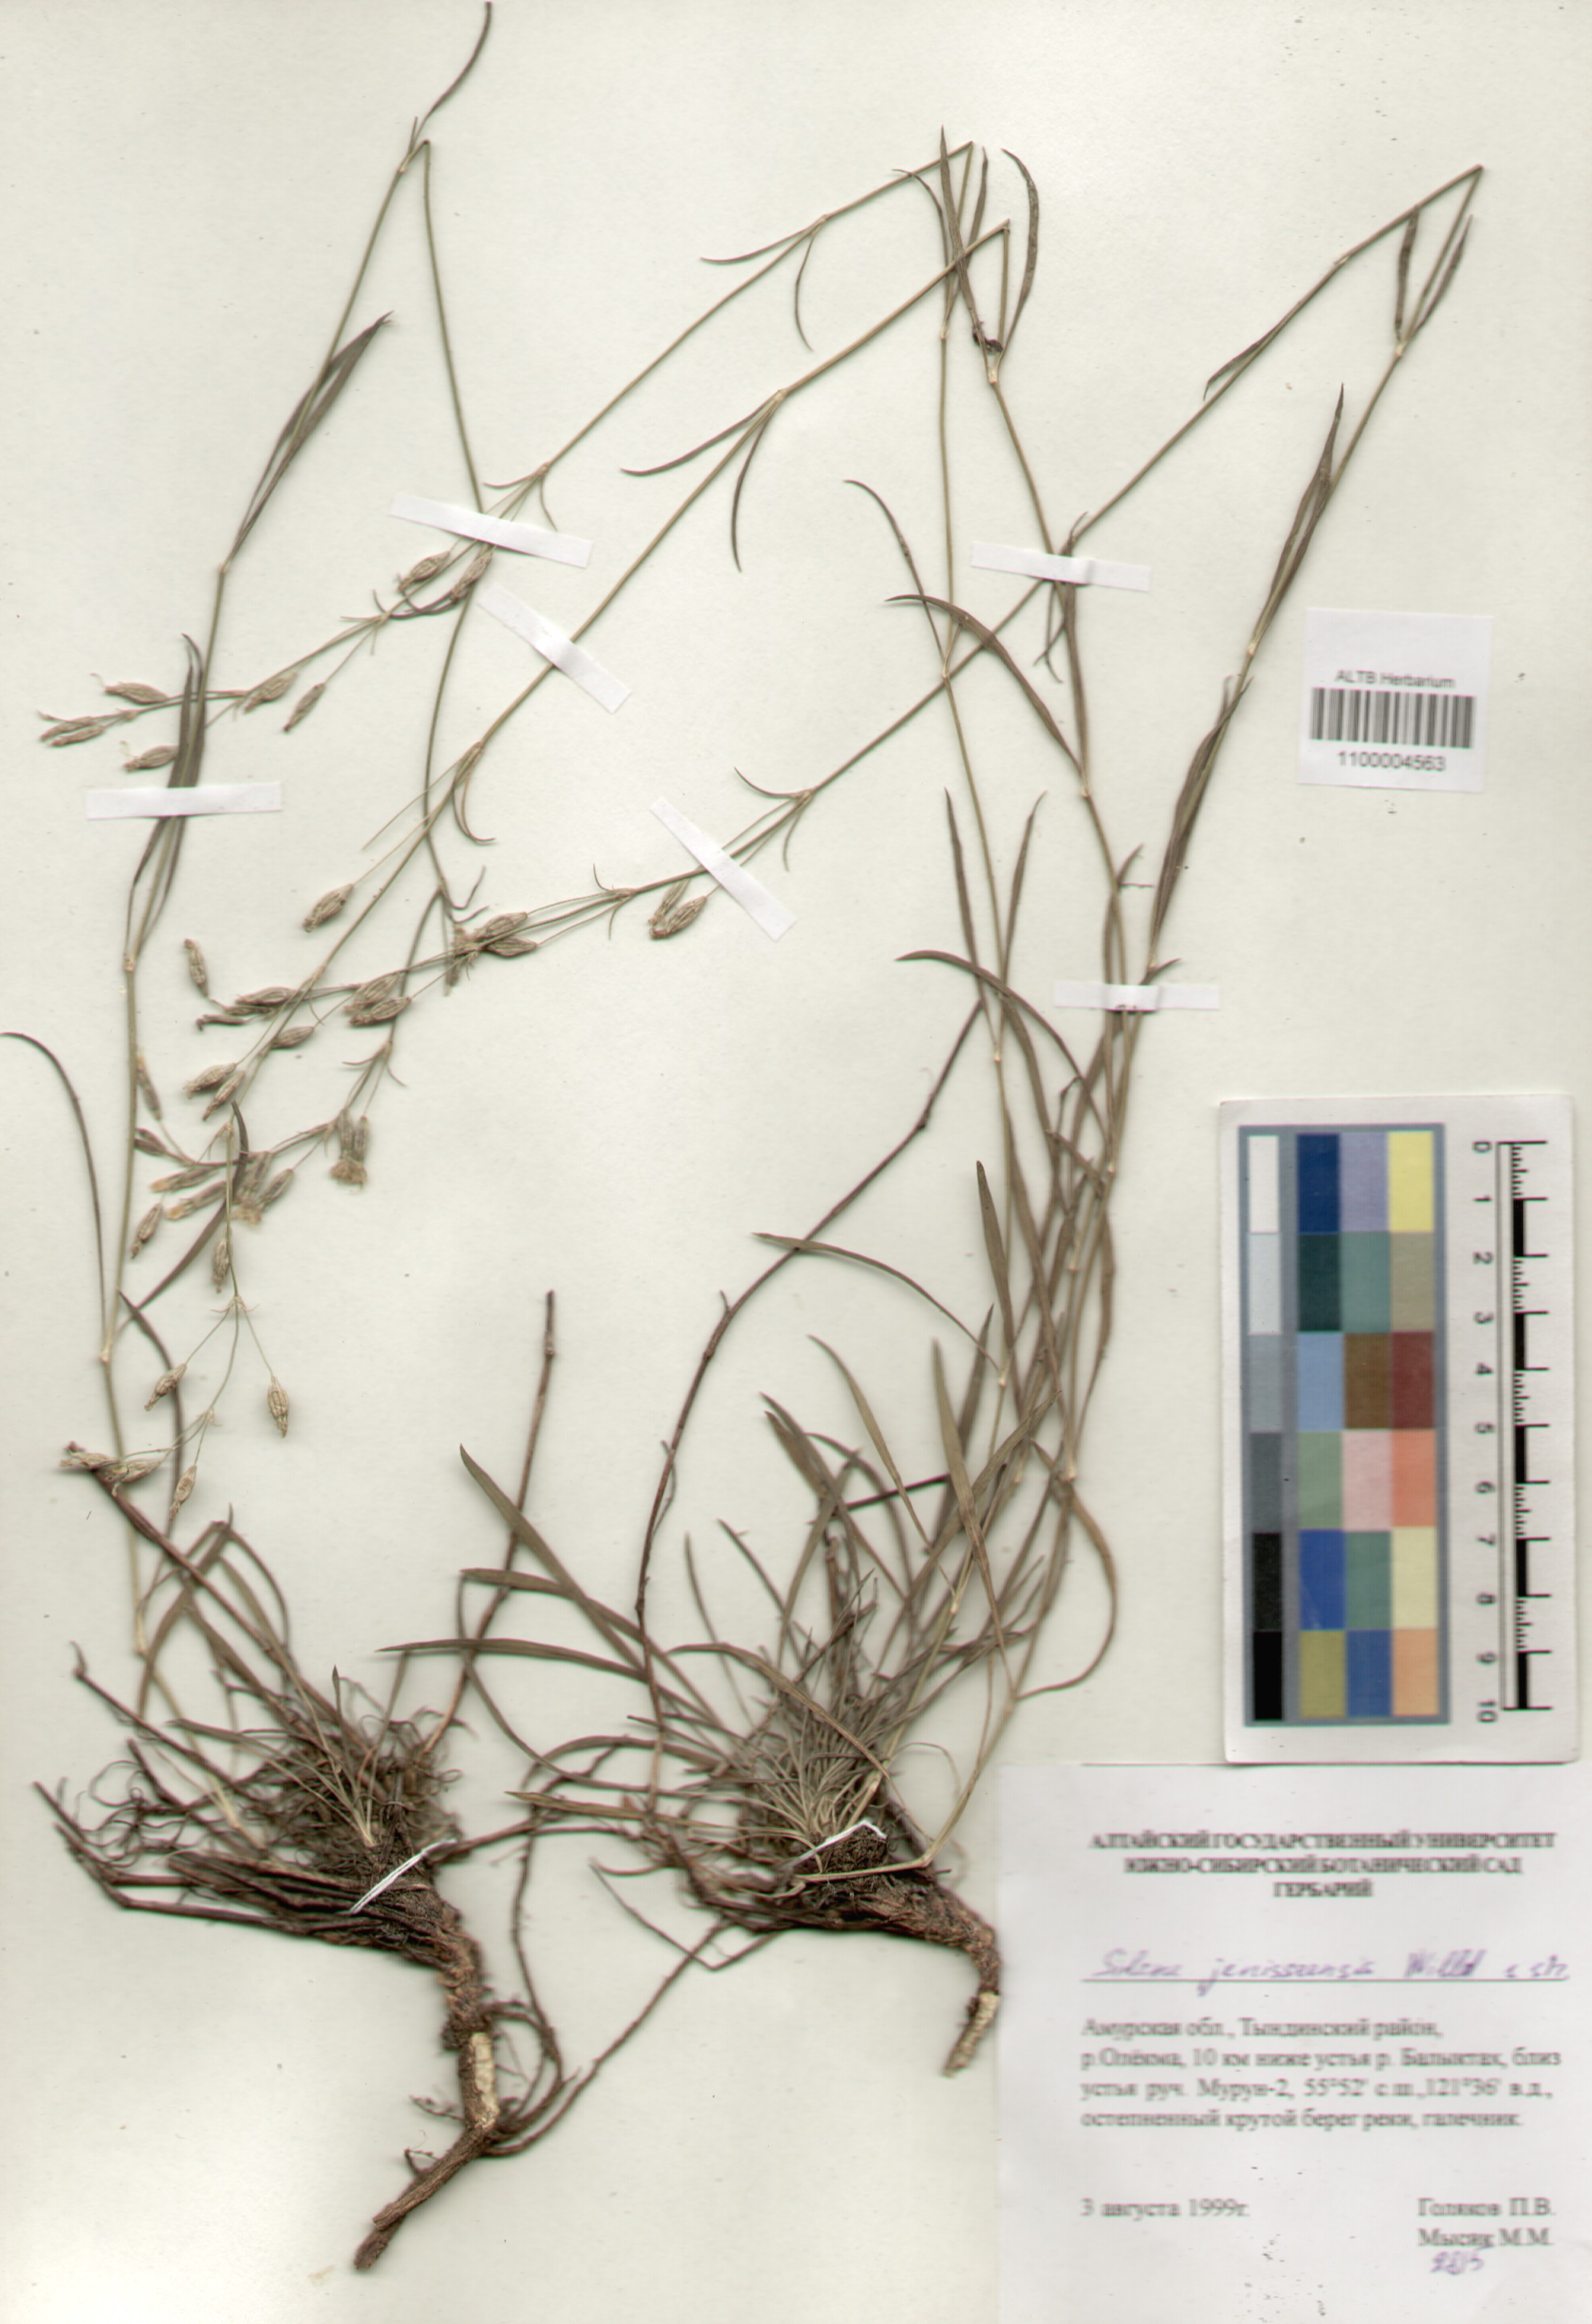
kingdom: Plantae
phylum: Tracheophyta
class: Magnoliopsida
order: Caryophyllales
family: Caryophyllaceae
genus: Silene
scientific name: Silene jeniseensis
